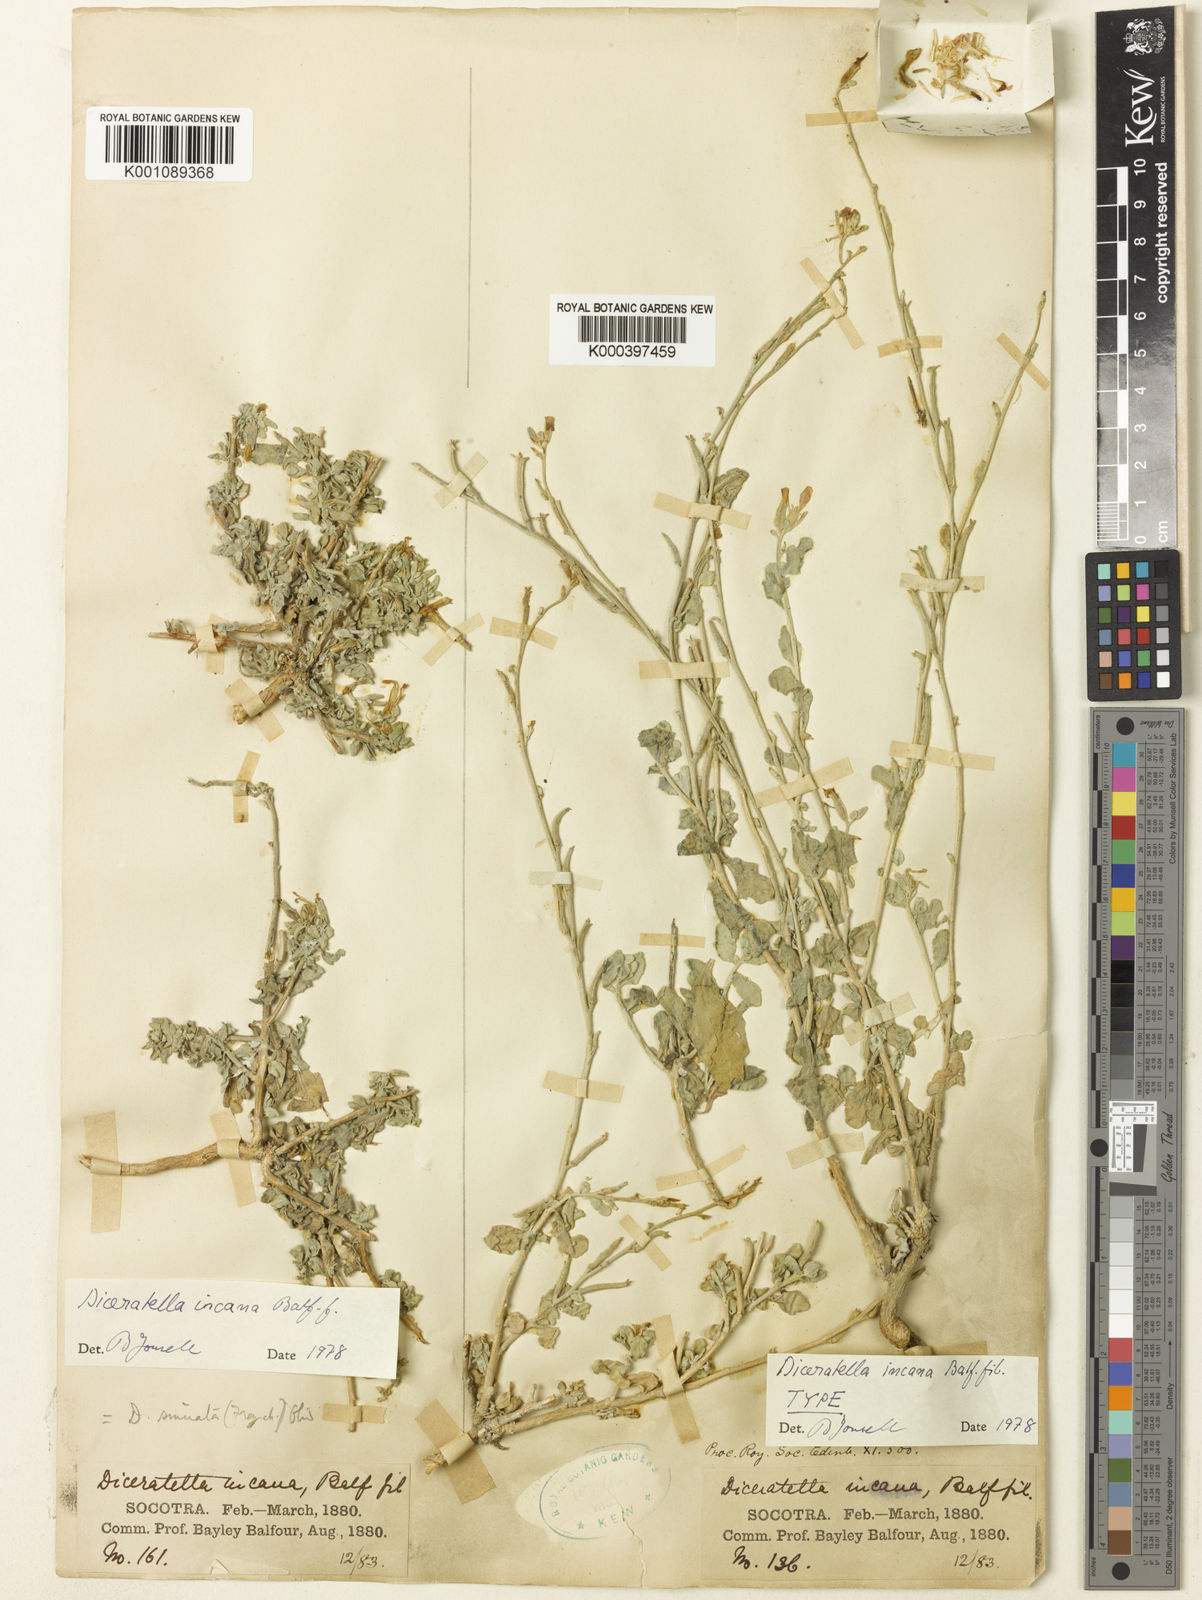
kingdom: Plantae
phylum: Tracheophyta
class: Magnoliopsida
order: Brassicales
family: Brassicaceae
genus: Diceratella
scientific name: Diceratella incana
